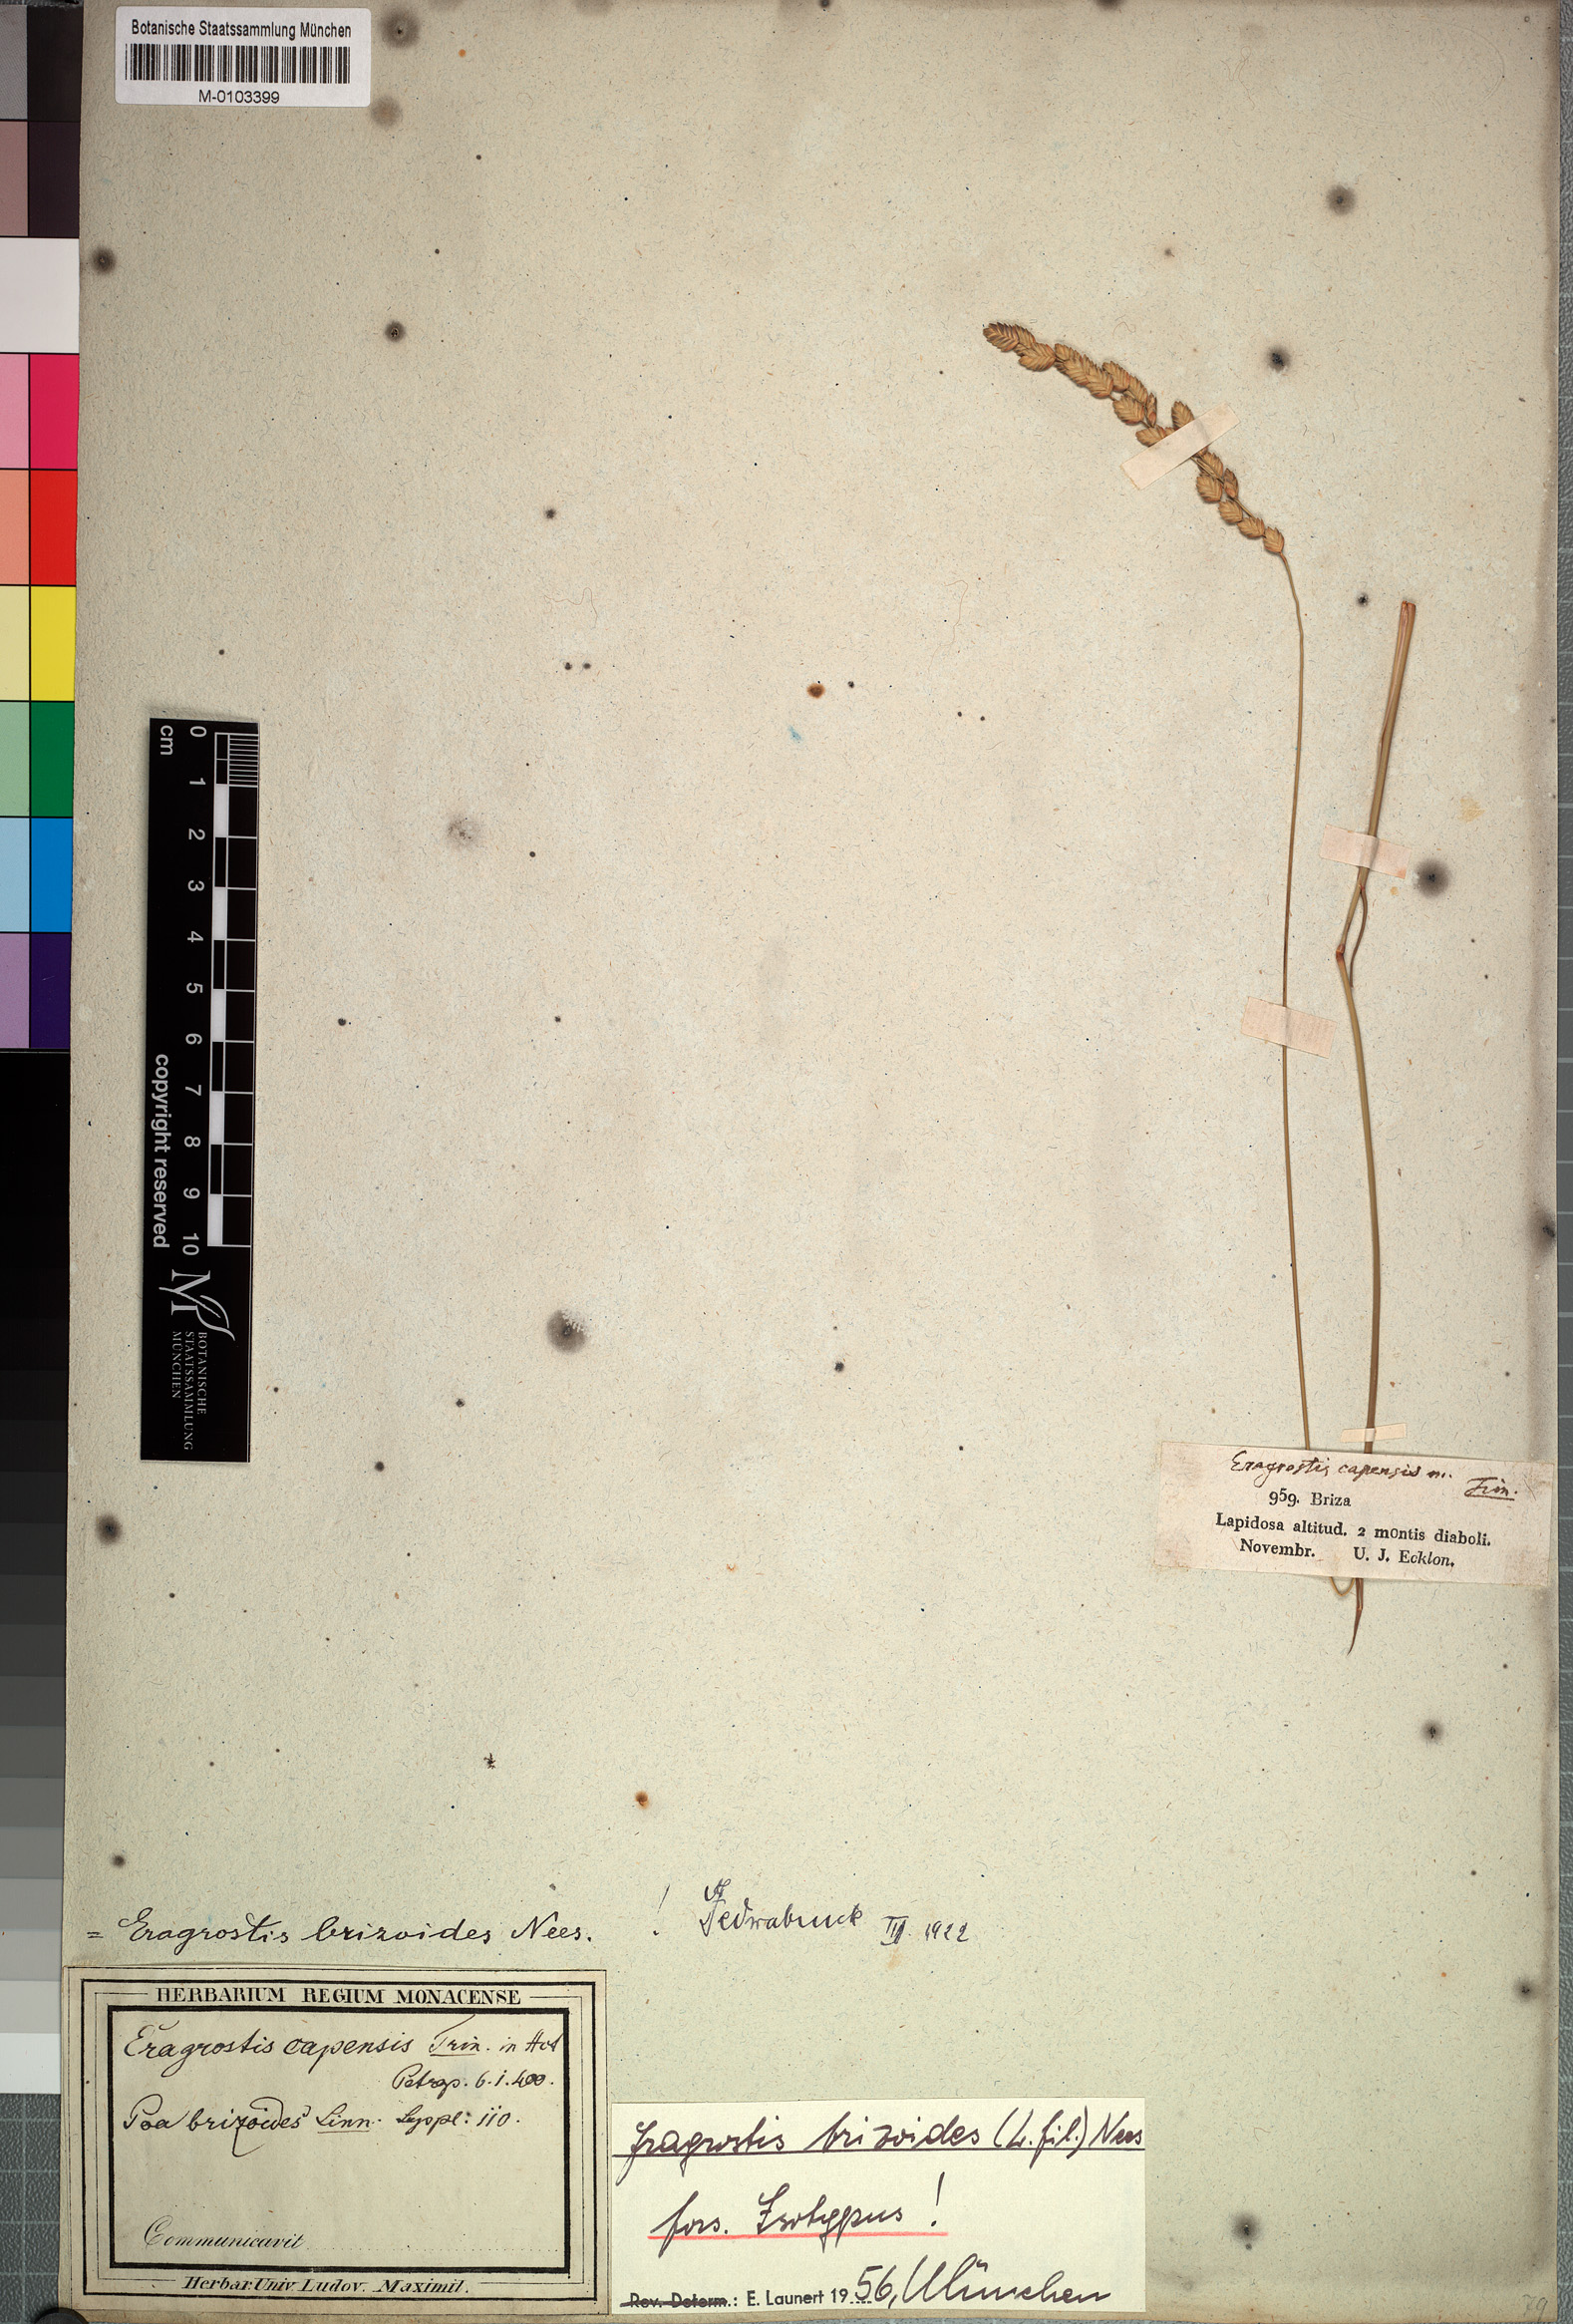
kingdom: Plantae
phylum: Tracheophyta
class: Liliopsida
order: Poales
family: Poaceae
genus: Eragrostis
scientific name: Eragrostis capensis
